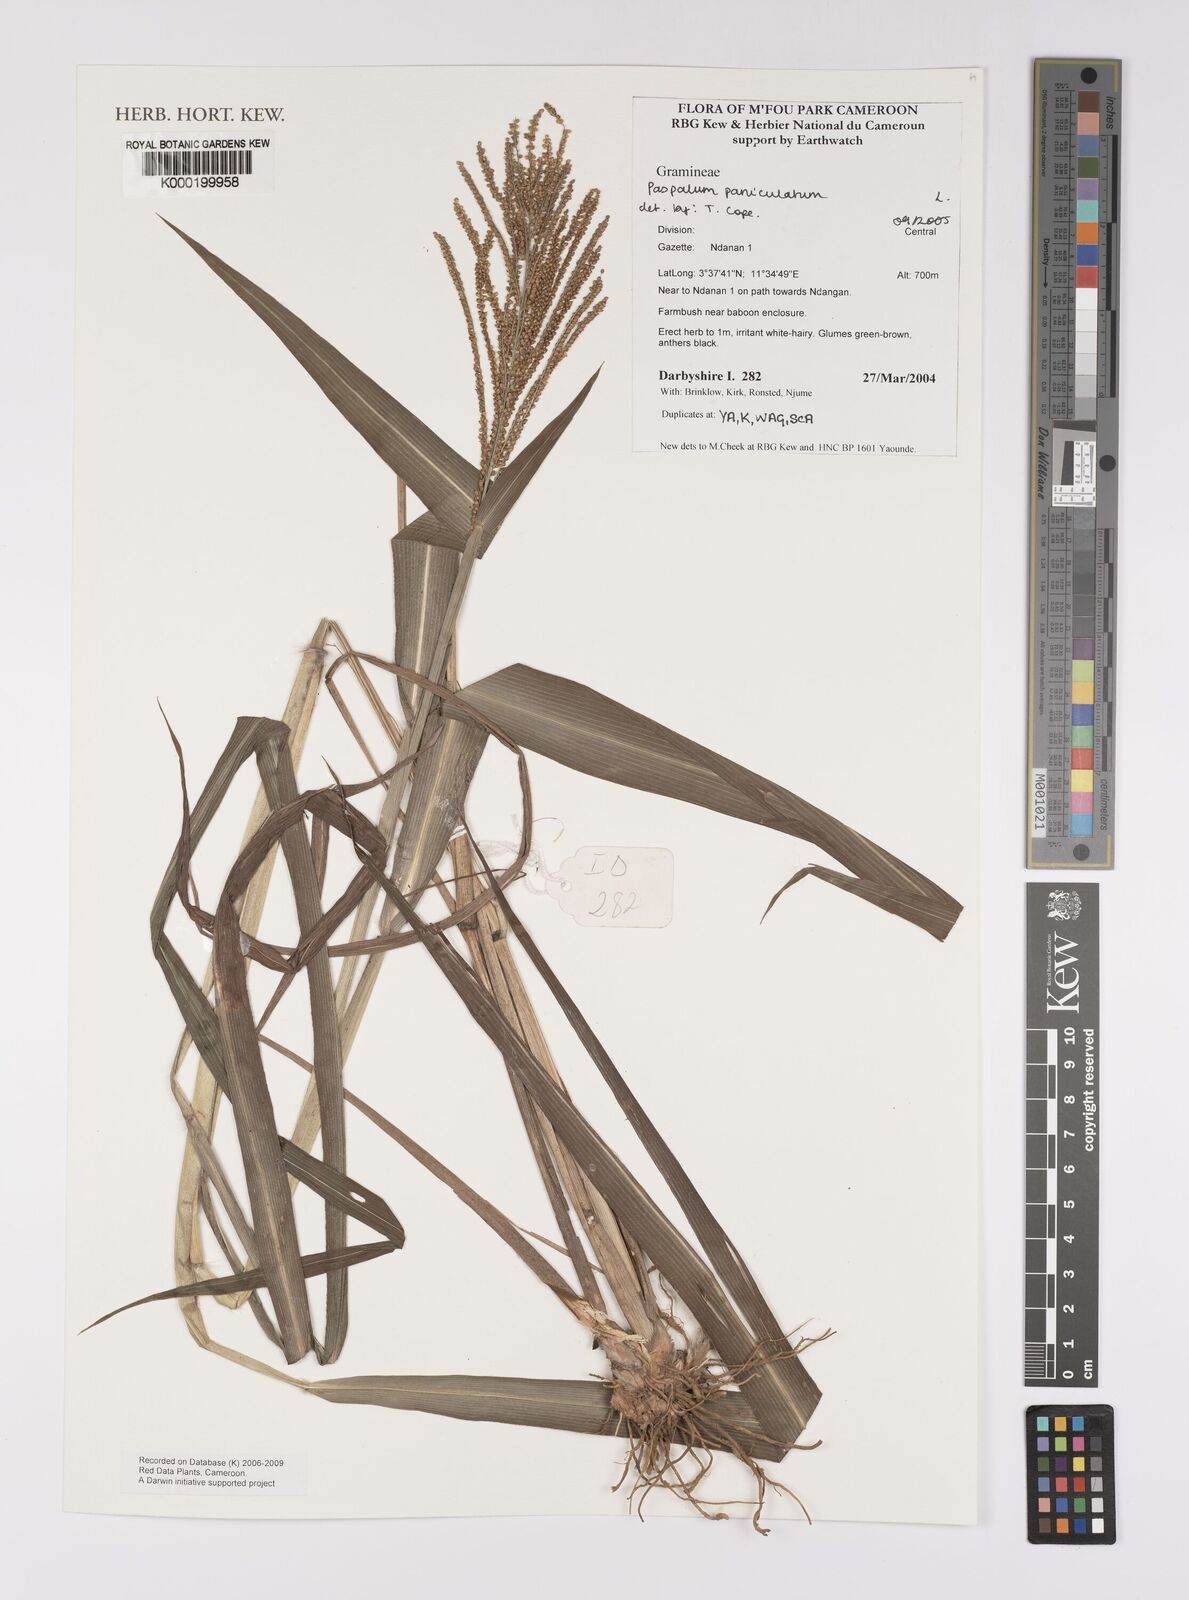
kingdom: Plantae
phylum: Tracheophyta
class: Liliopsida
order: Poales
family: Poaceae
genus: Paspalum
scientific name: Paspalum paniculatum
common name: Arrocillo
